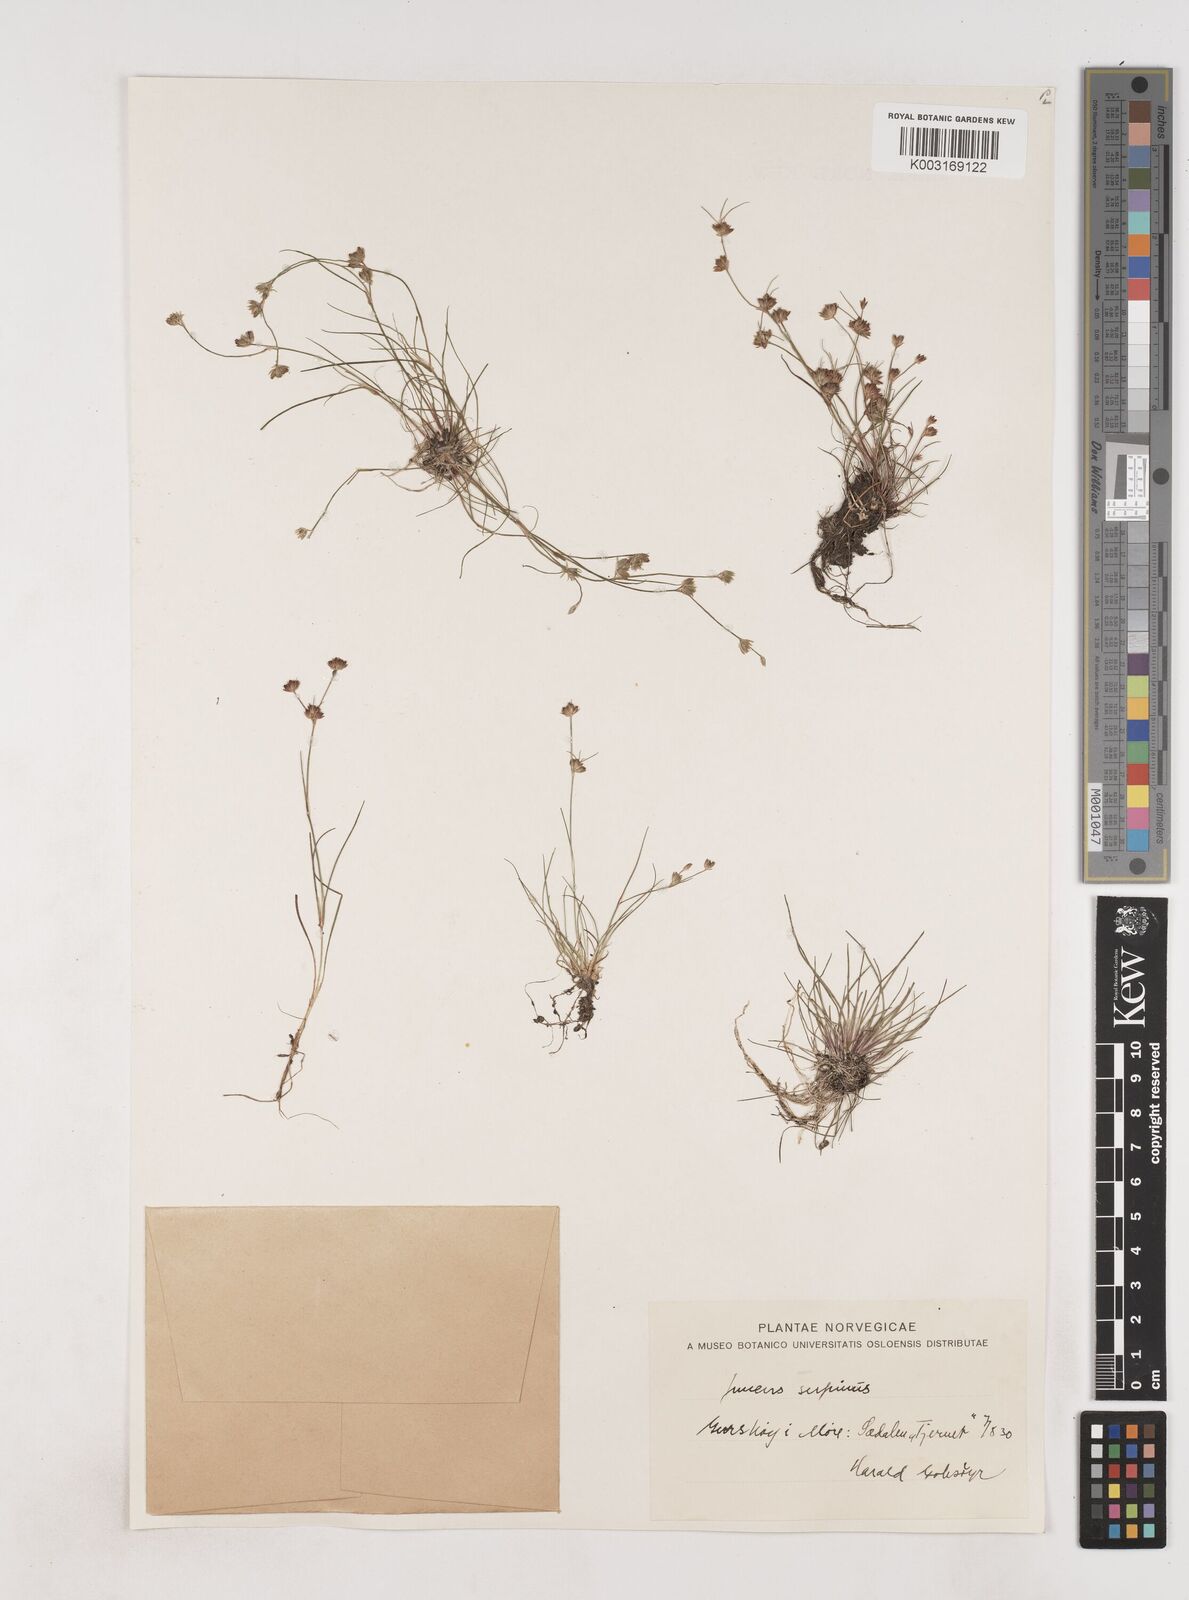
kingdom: Plantae
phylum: Tracheophyta
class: Liliopsida
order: Poales
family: Juncaceae
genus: Juncus
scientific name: Juncus bulbosus
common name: Bulbous rush
